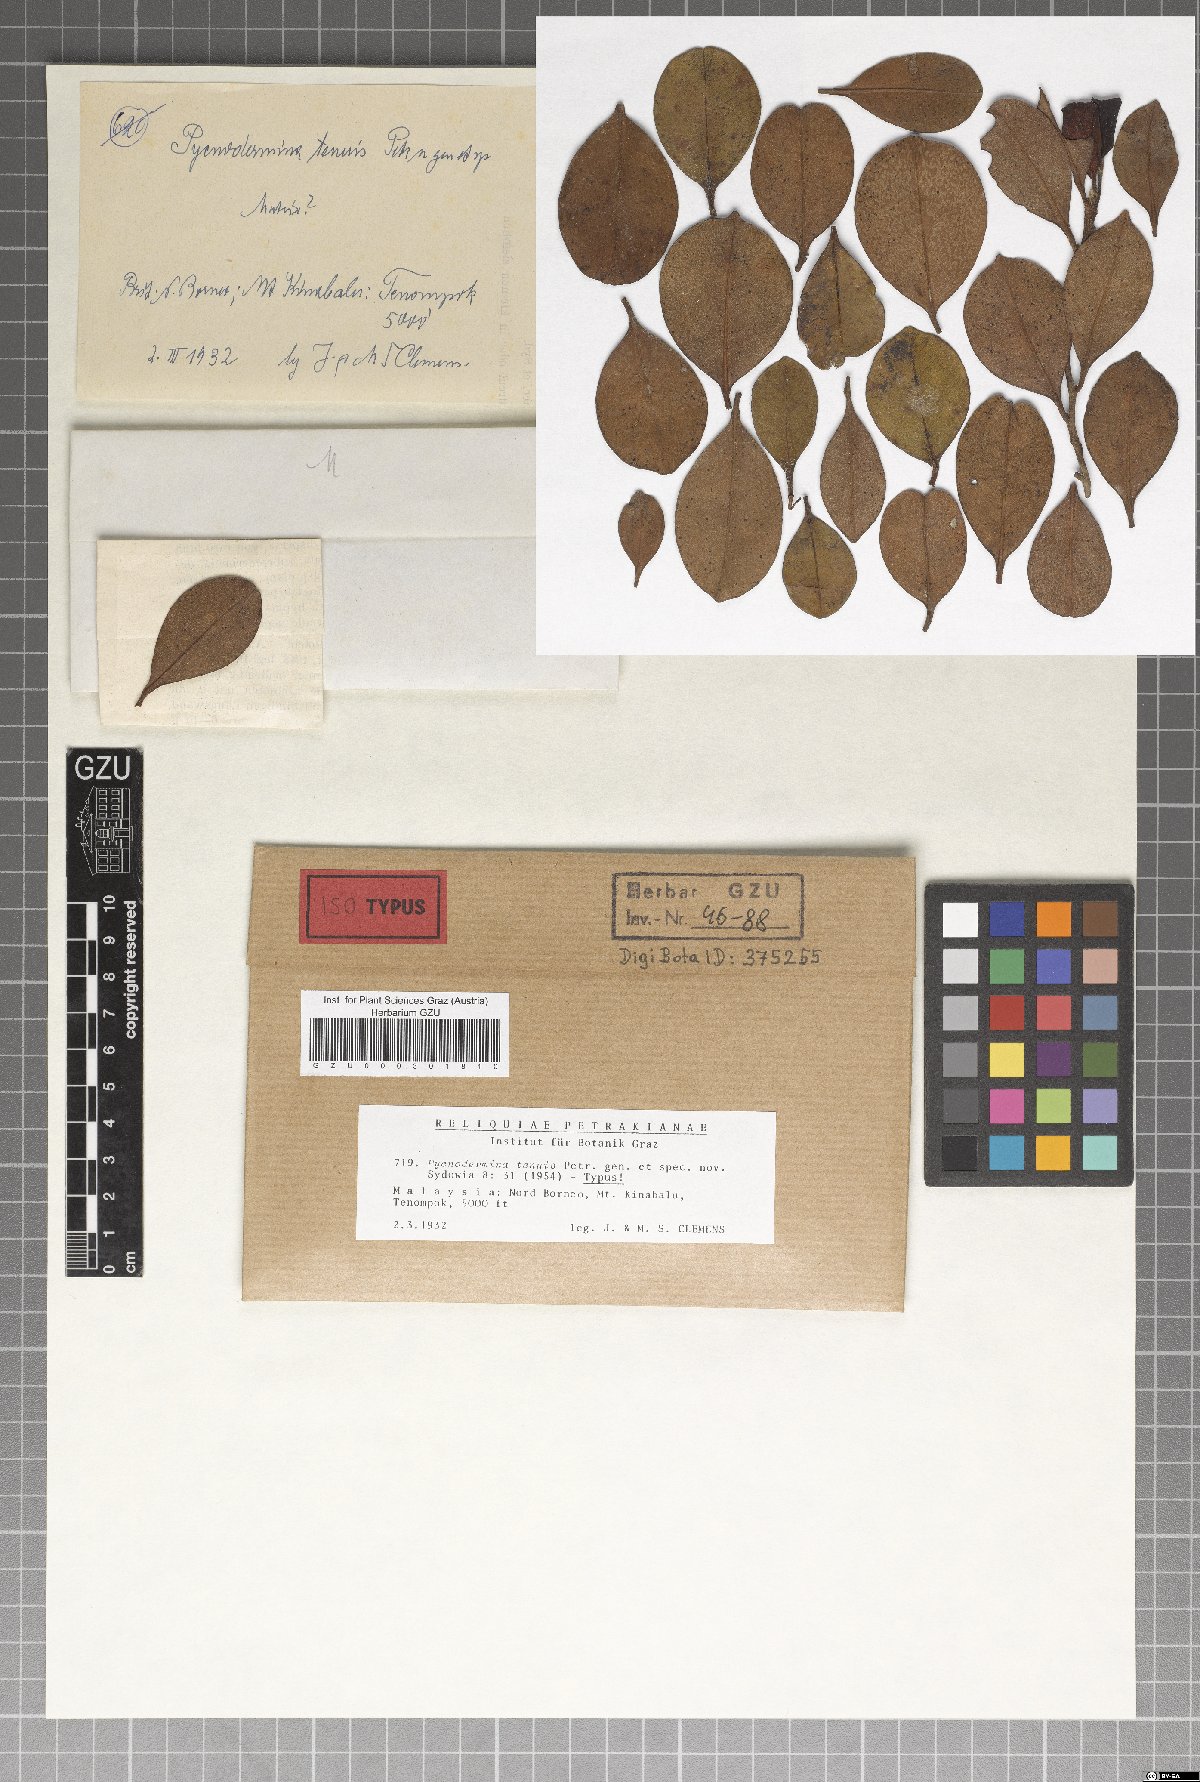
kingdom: Fungi
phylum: Ascomycota
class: Dothideomycetes
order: Myriangiales
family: Cookellaceae
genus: Pycnodermina
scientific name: Pycnodermina tenuis
